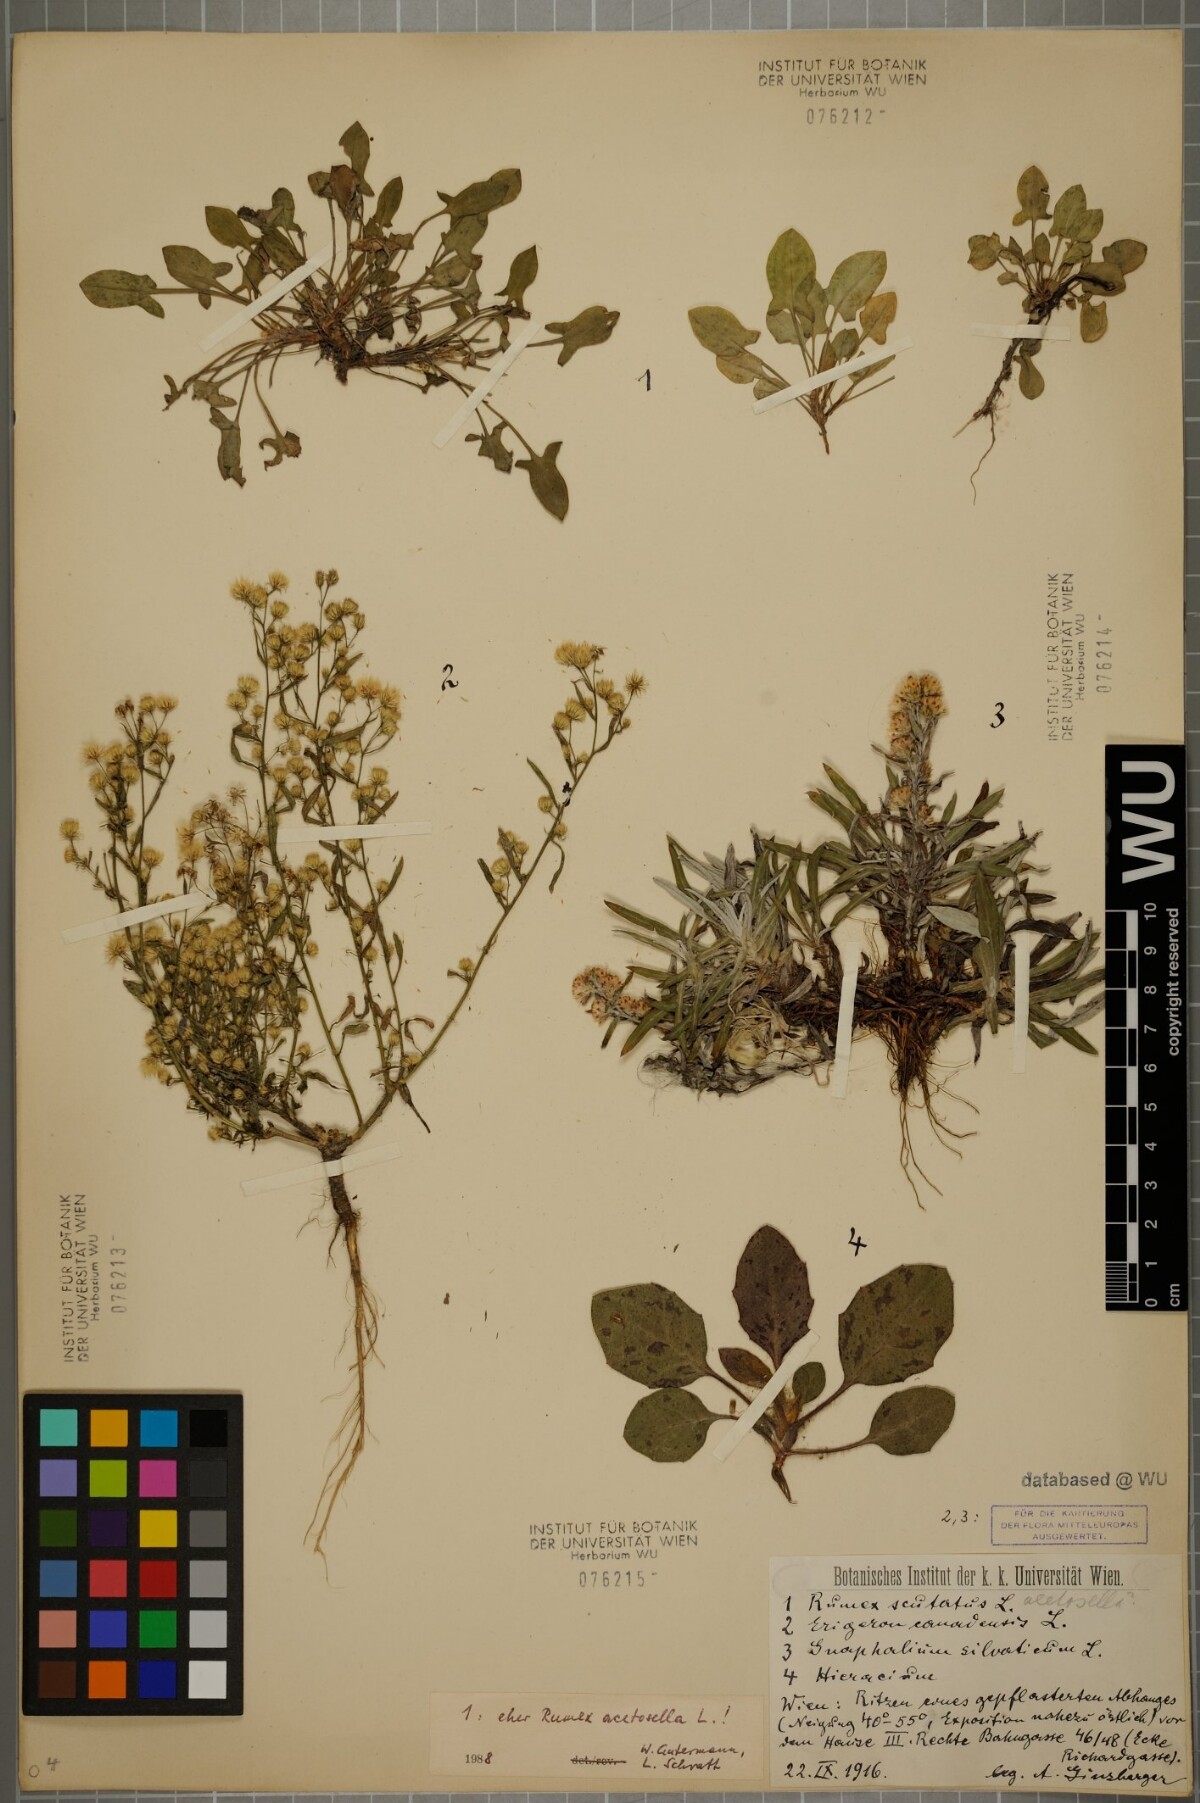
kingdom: Plantae
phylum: Tracheophyta
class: Magnoliopsida
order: Asterales
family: Asteraceae
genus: Hieracium
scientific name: Hieracium
